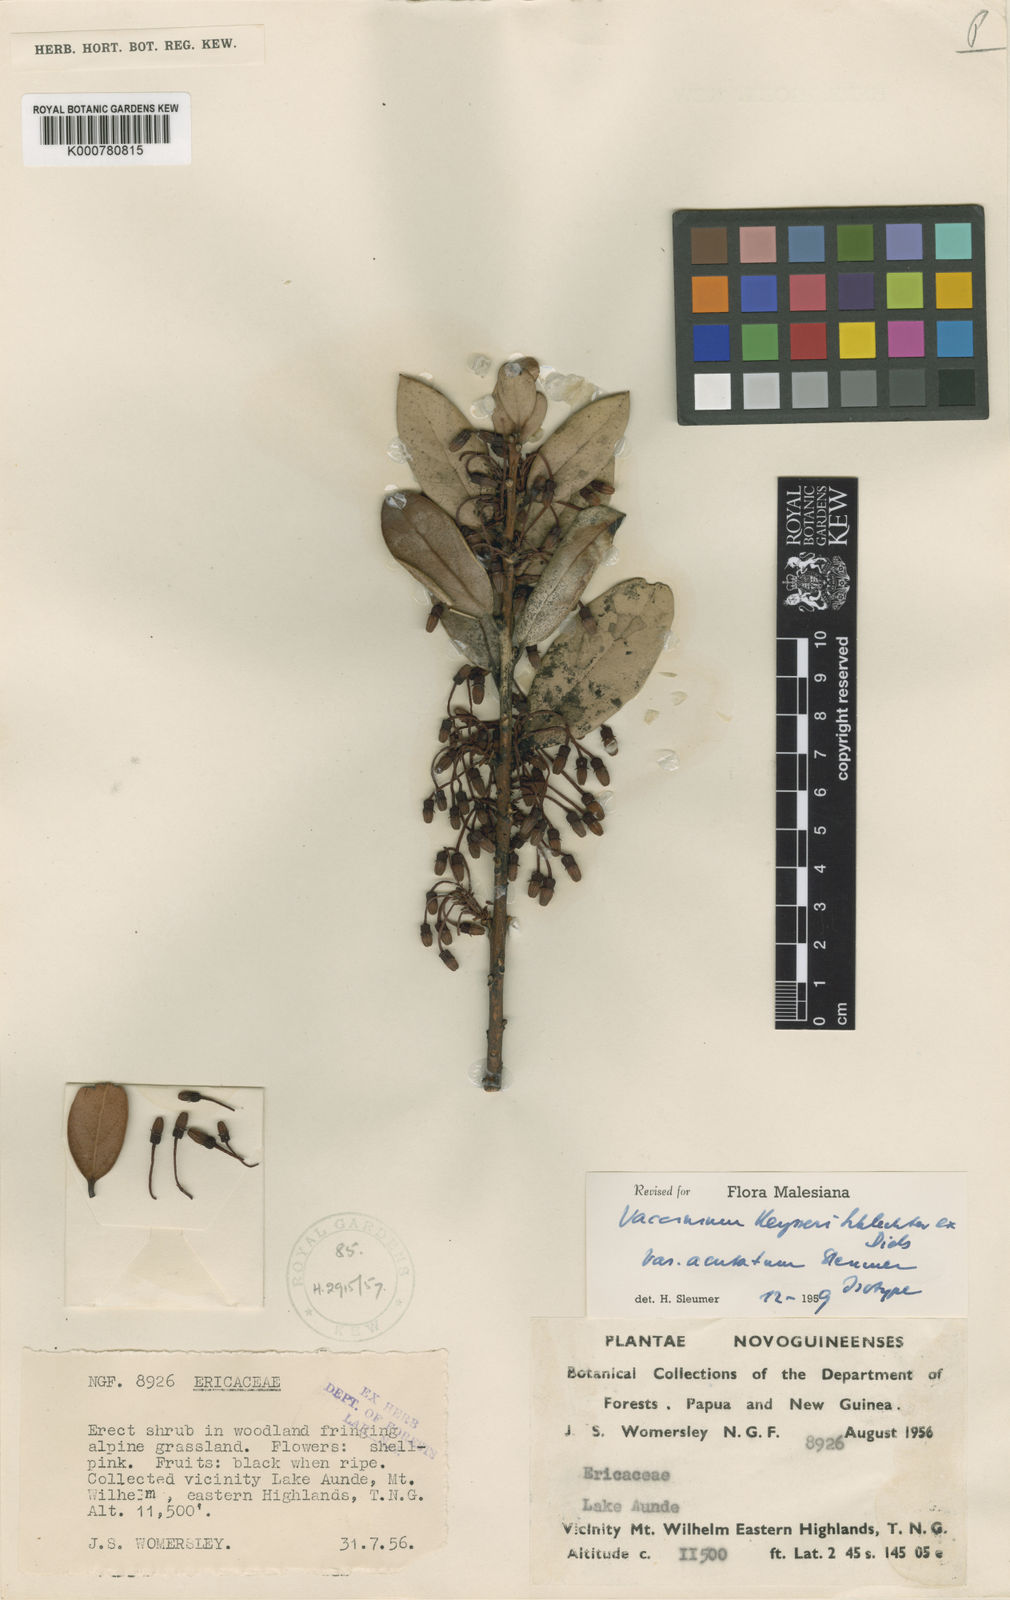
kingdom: Plantae
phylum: Tracheophyta
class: Magnoliopsida
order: Ericales
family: Ericaceae
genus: Dimorphanthera
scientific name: Dimorphanthera keysseri
